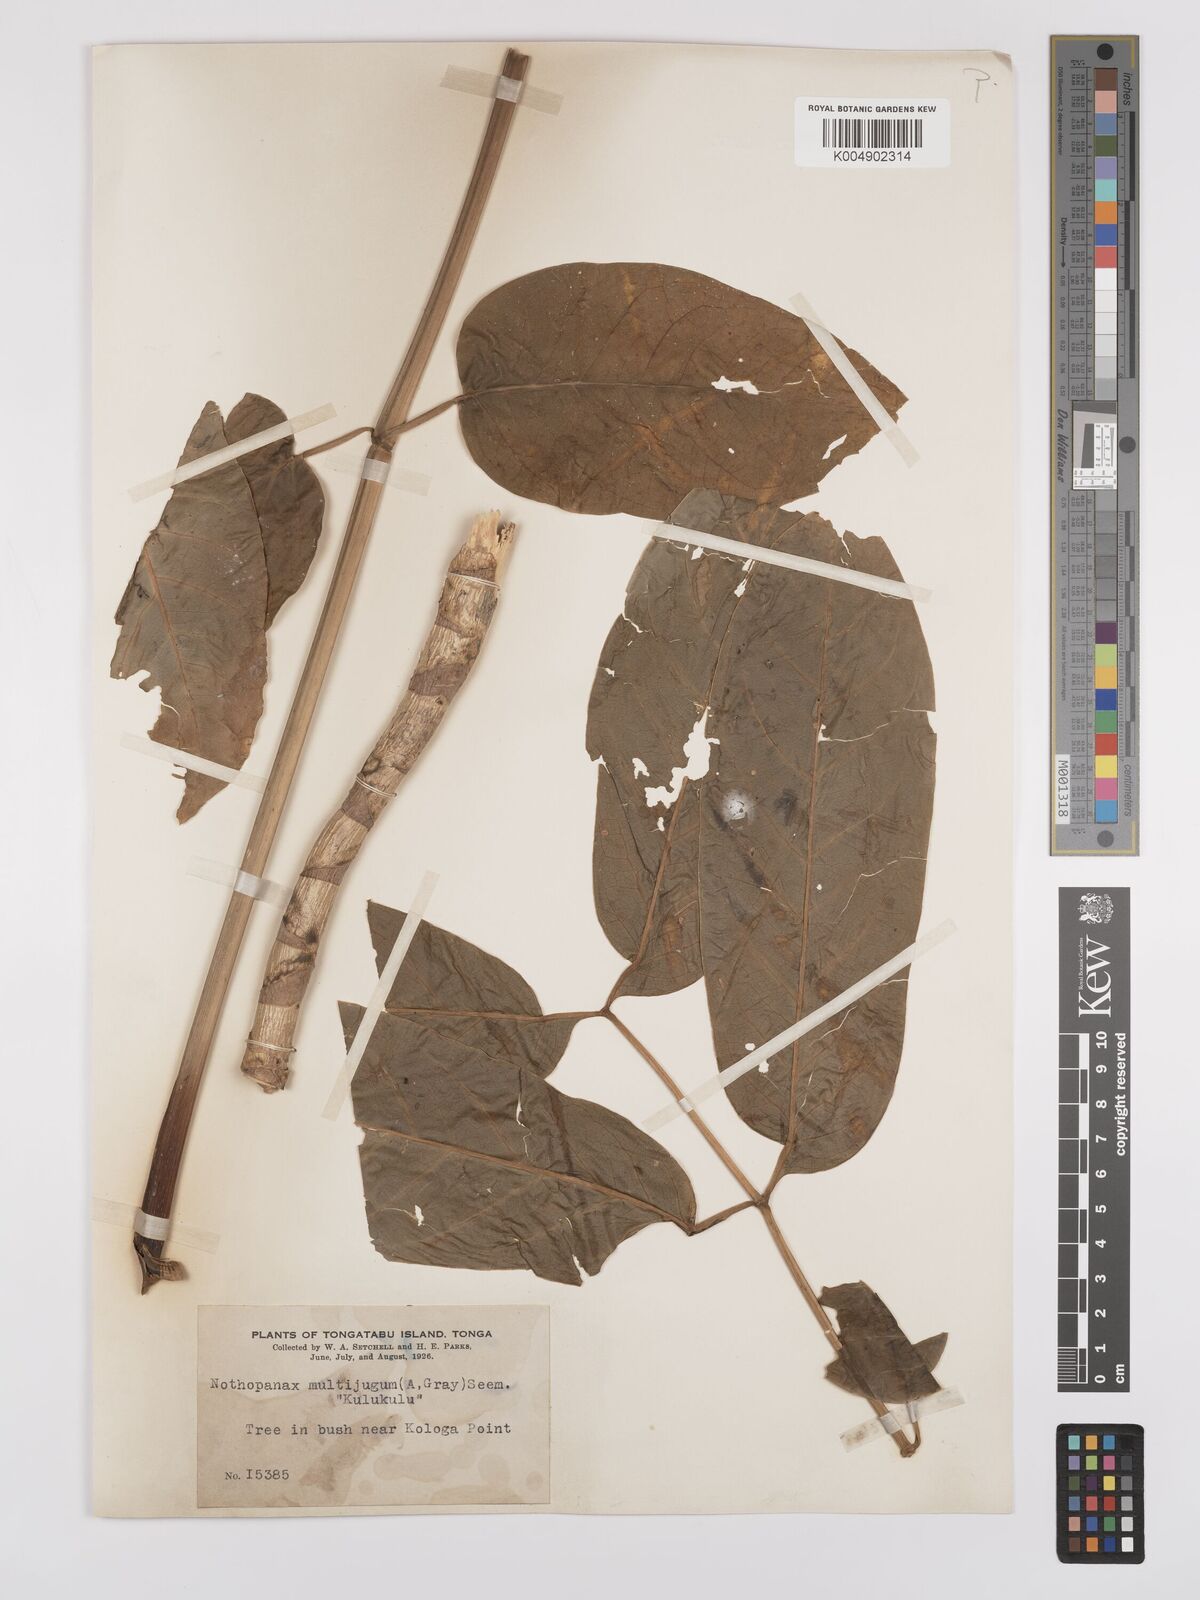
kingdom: Plantae
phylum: Tracheophyta
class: Magnoliopsida
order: Apiales
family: Araliaceae
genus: Polyscias
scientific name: Polyscias multijuga
